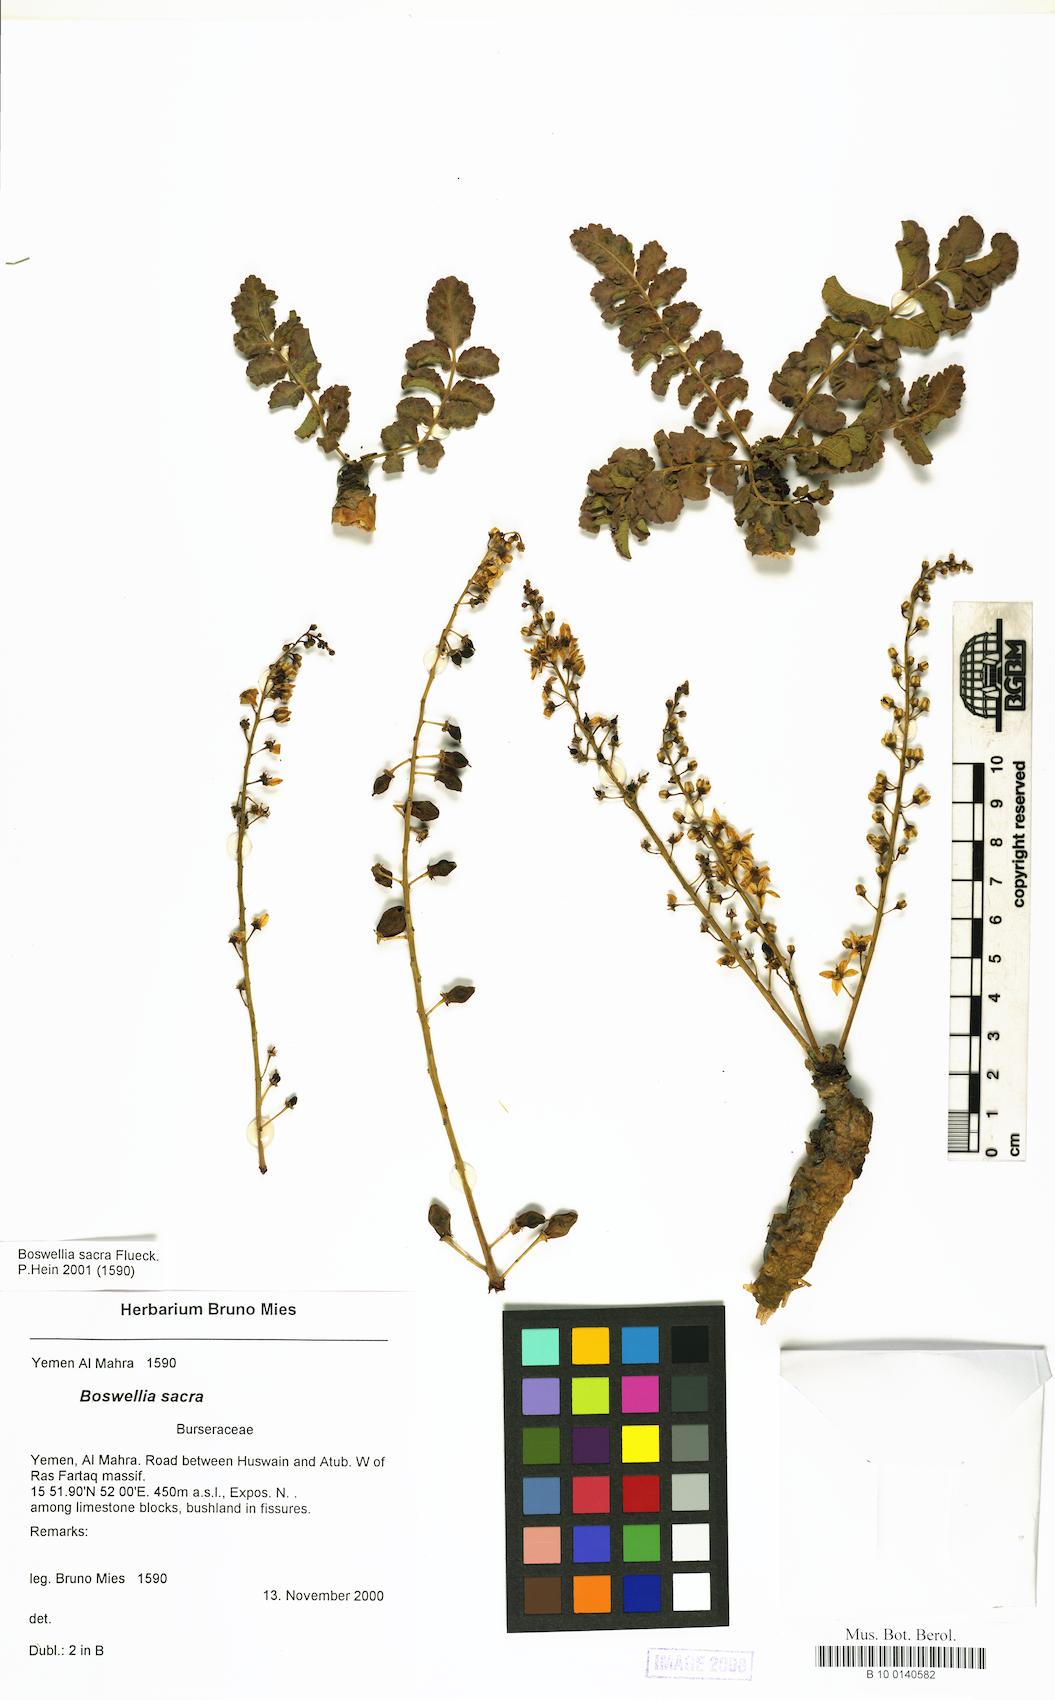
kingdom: Plantae
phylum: Tracheophyta
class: Magnoliopsida
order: Sapindales
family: Burseraceae
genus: Boswellia
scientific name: Boswellia sacra
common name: Olibanum-tree
